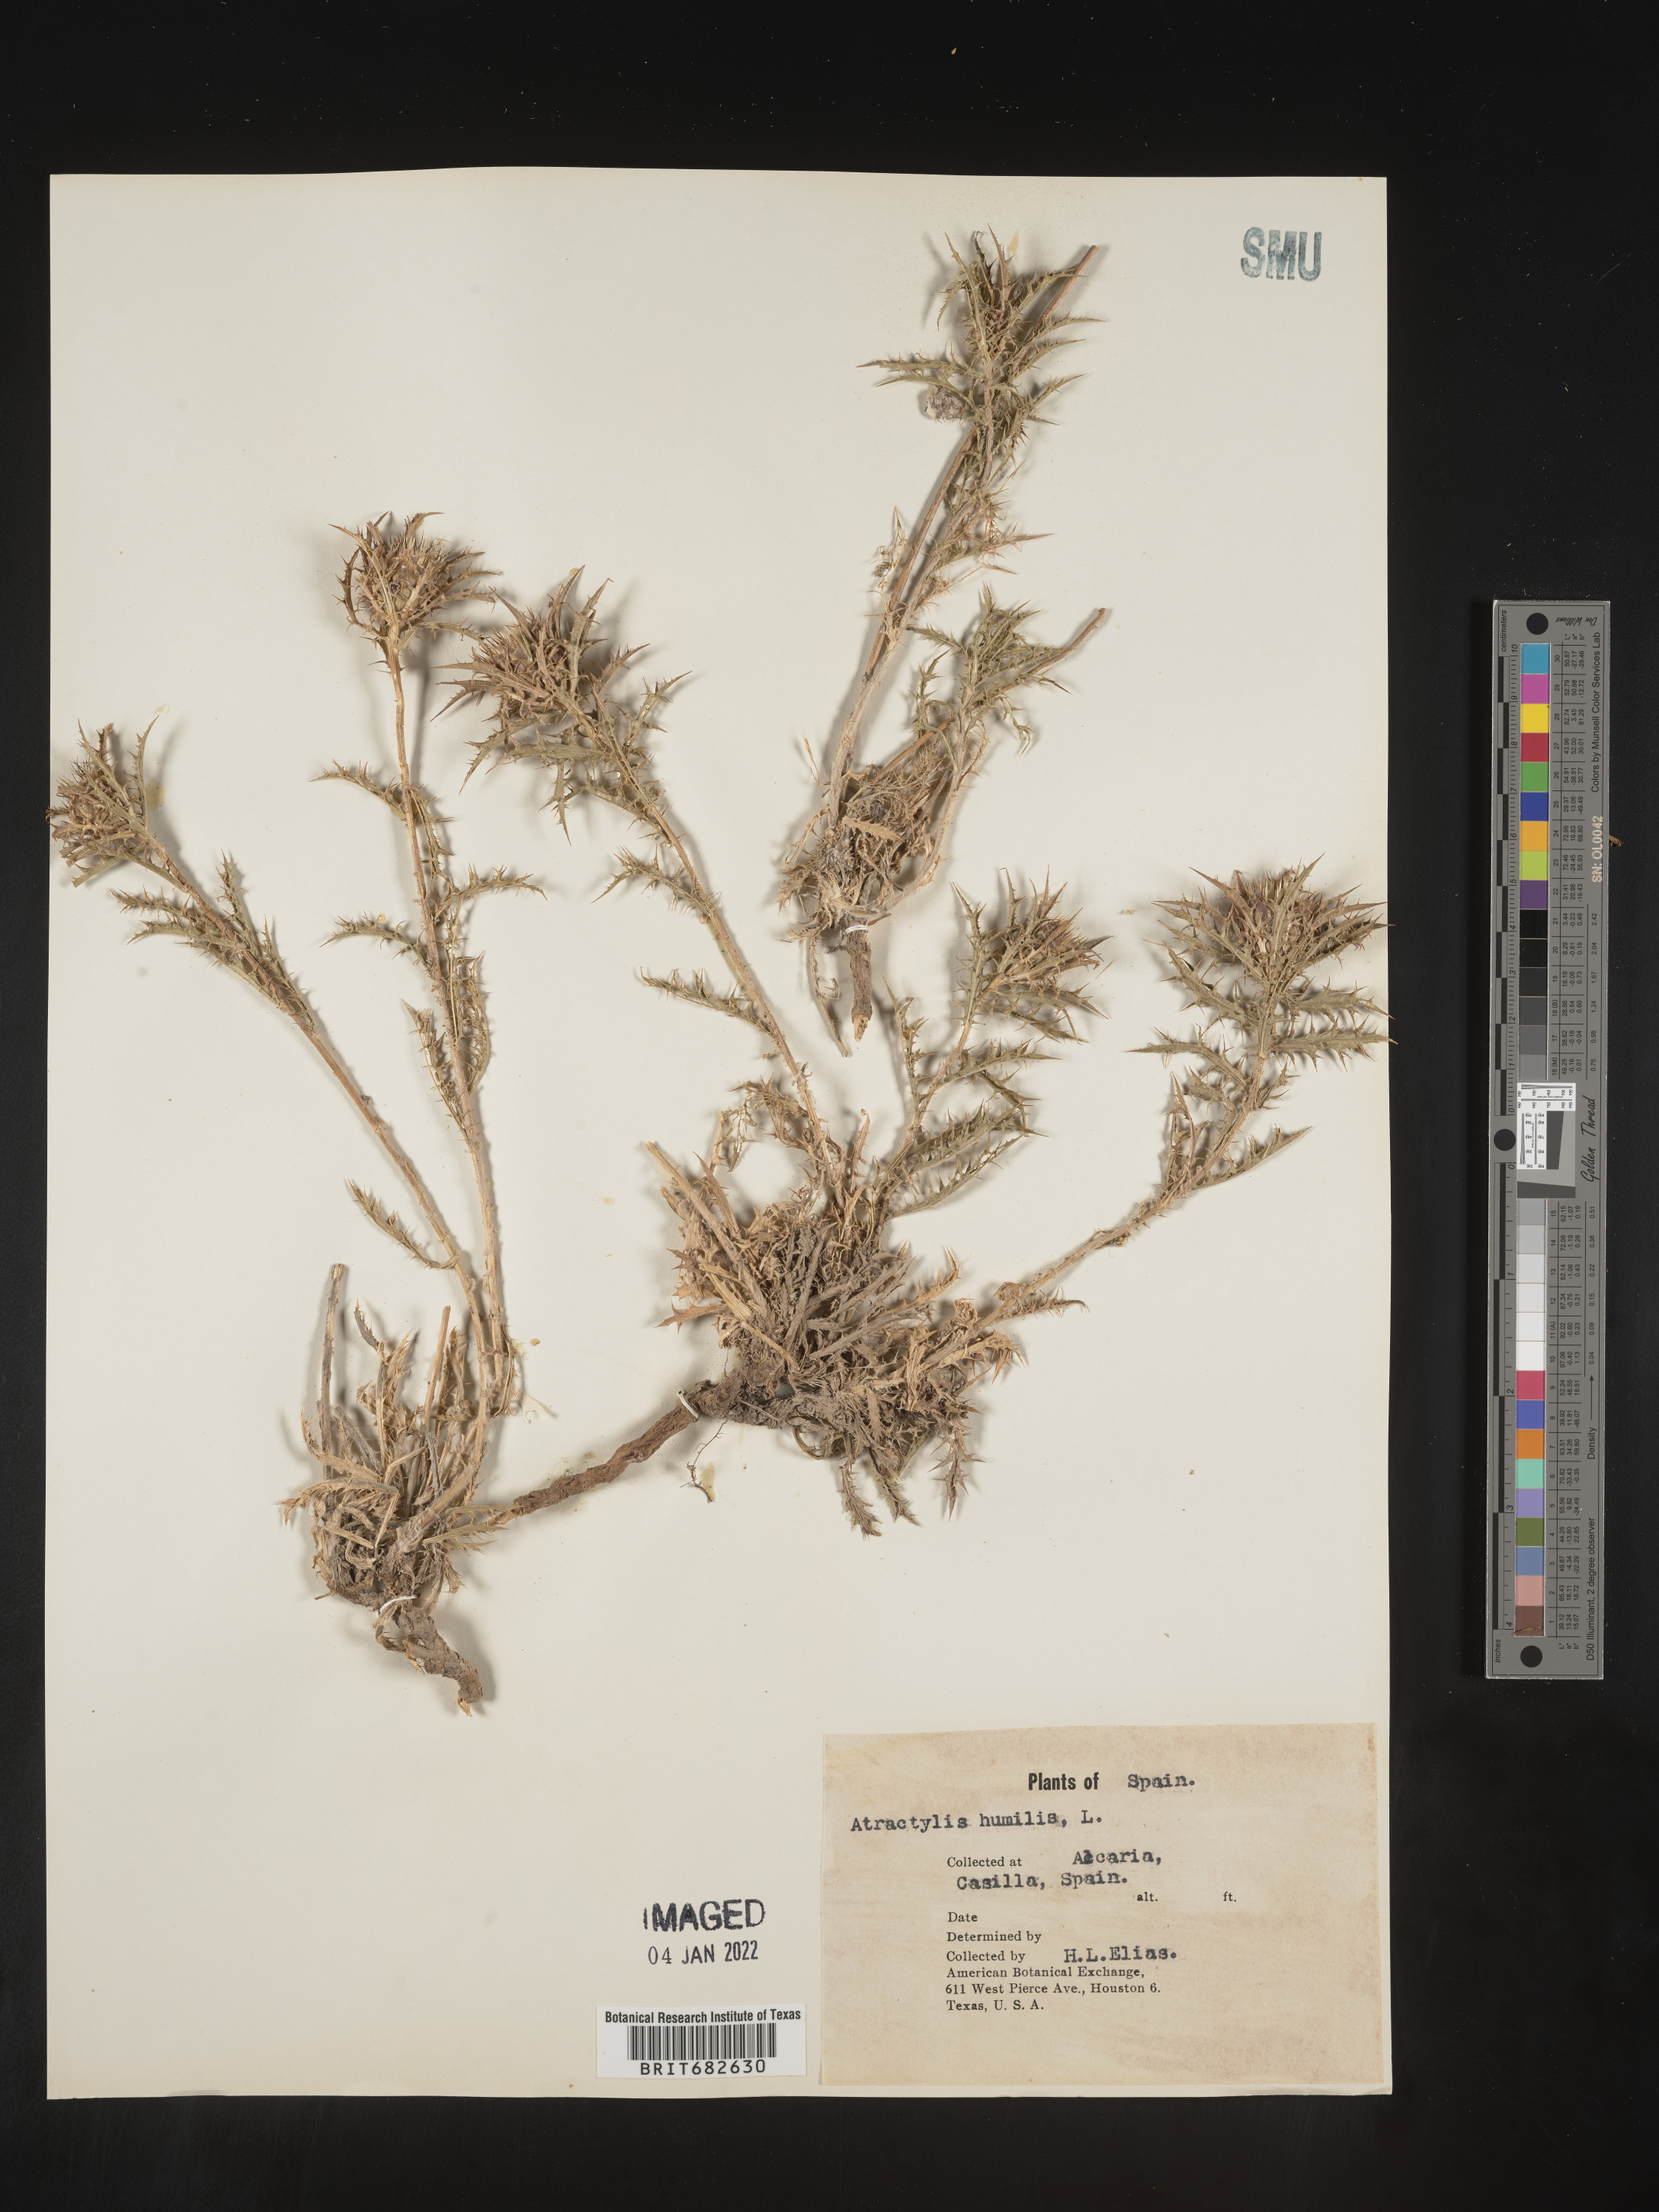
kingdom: Plantae
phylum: Tracheophyta
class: Magnoliopsida
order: Asterales
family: Asteraceae
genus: Atractylis
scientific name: Atractylis
